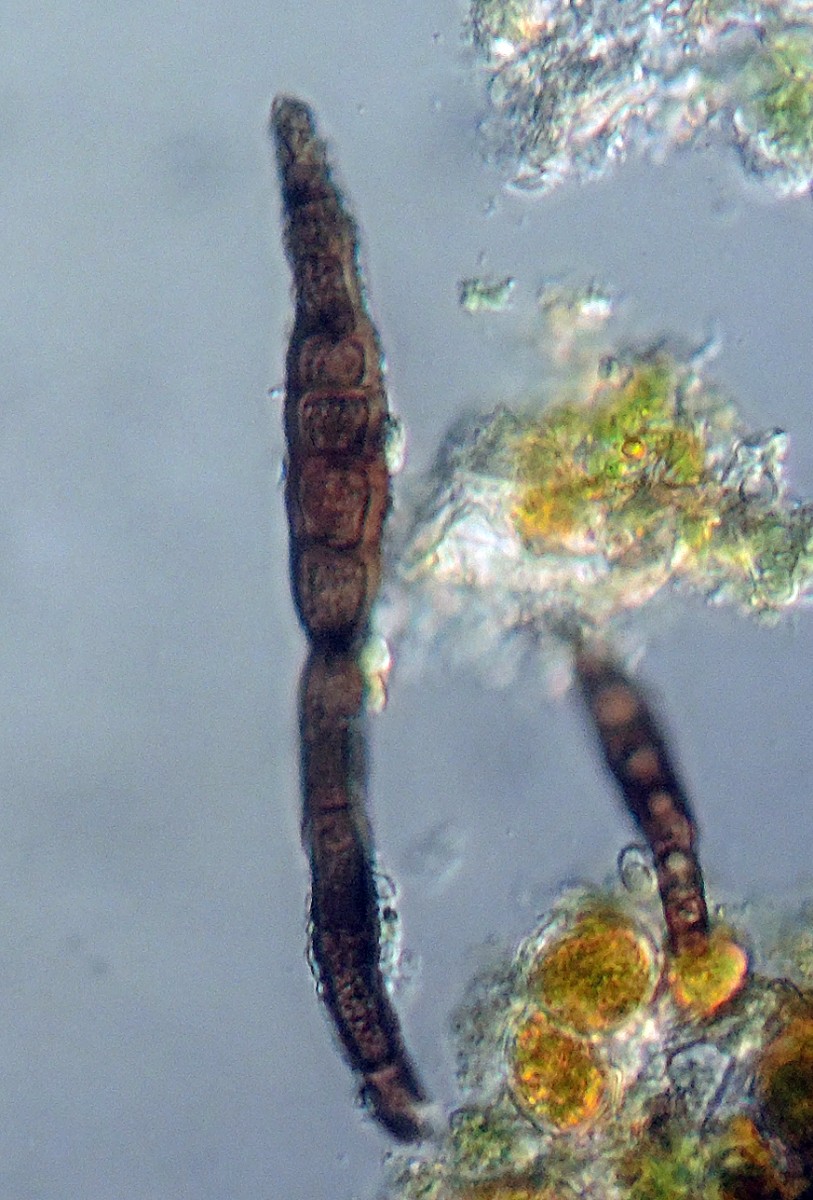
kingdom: Fungi
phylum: Ascomycota
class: Dothideomycetes
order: Pleosporales
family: Corynesporascaceae
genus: Corynespora
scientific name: Corynespora proliferata
